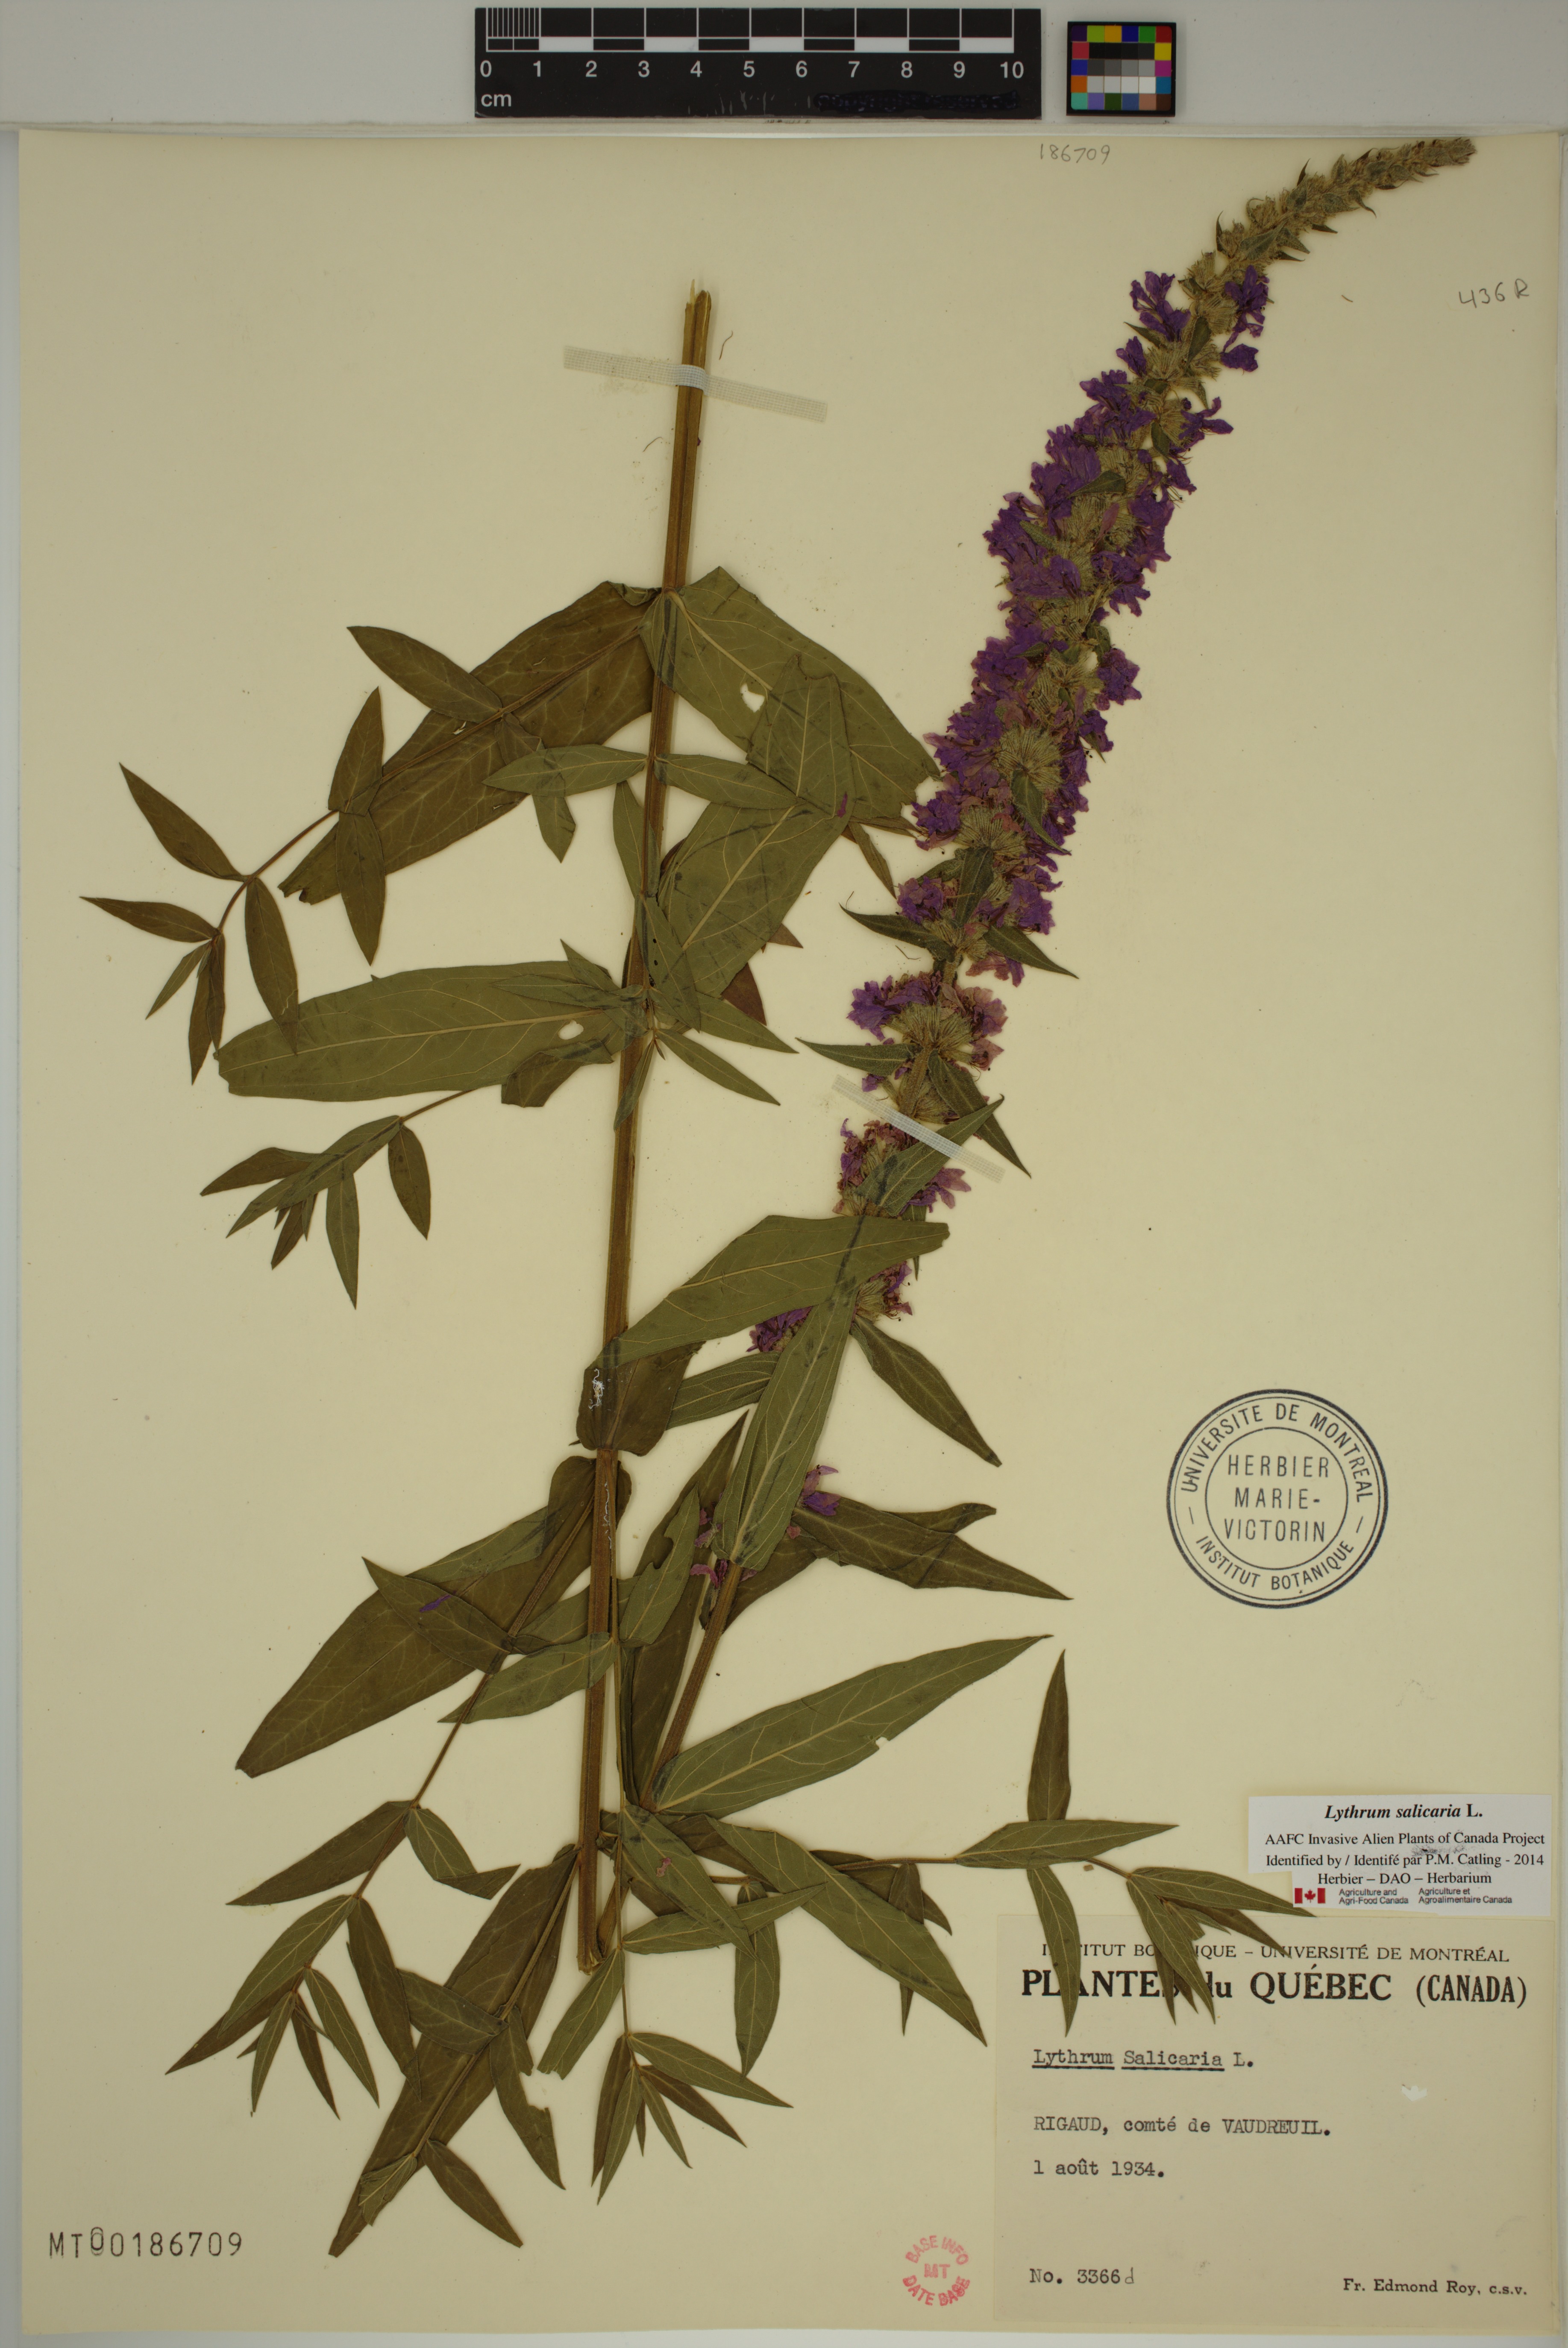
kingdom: Plantae
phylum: Tracheophyta
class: Magnoliopsida
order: Myrtales
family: Lythraceae
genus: Lythrum
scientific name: Lythrum salicaria
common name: Purple loosestrife
